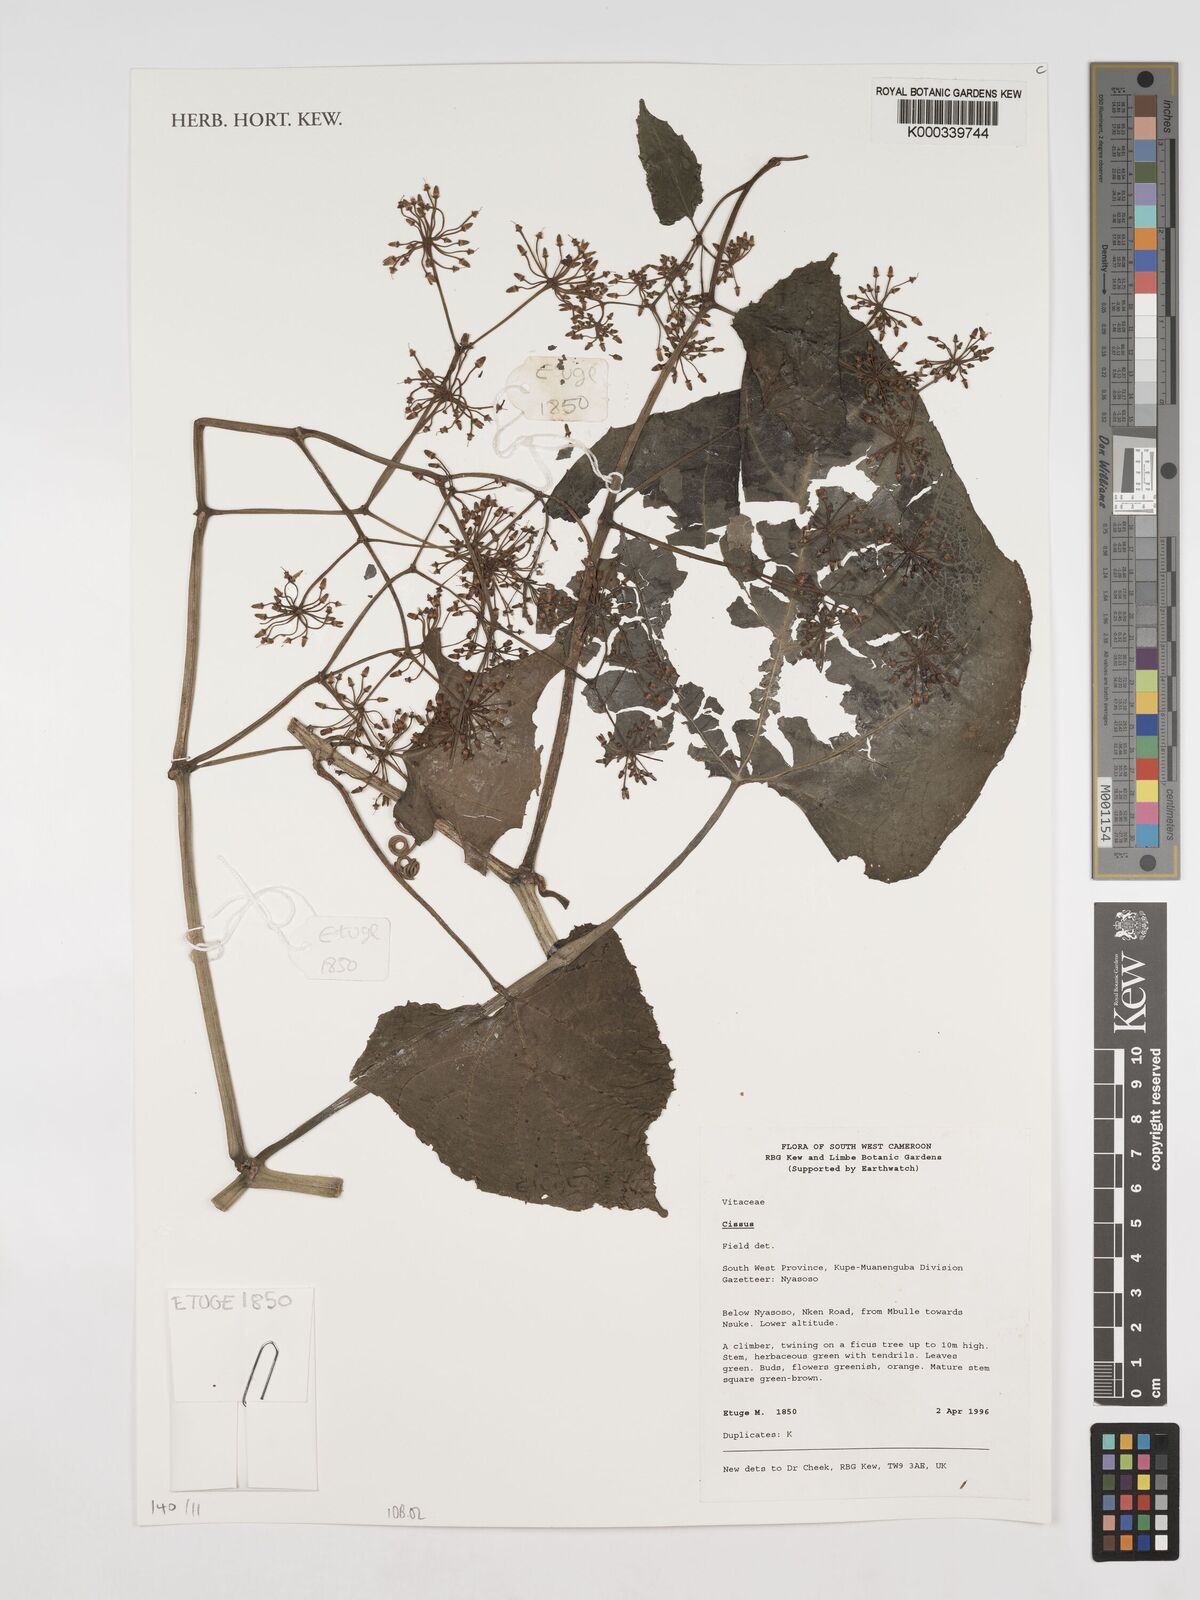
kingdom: Plantae
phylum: Tracheophyta
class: Magnoliopsida
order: Vitales
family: Vitaceae
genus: Cissus
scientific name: Cissus
